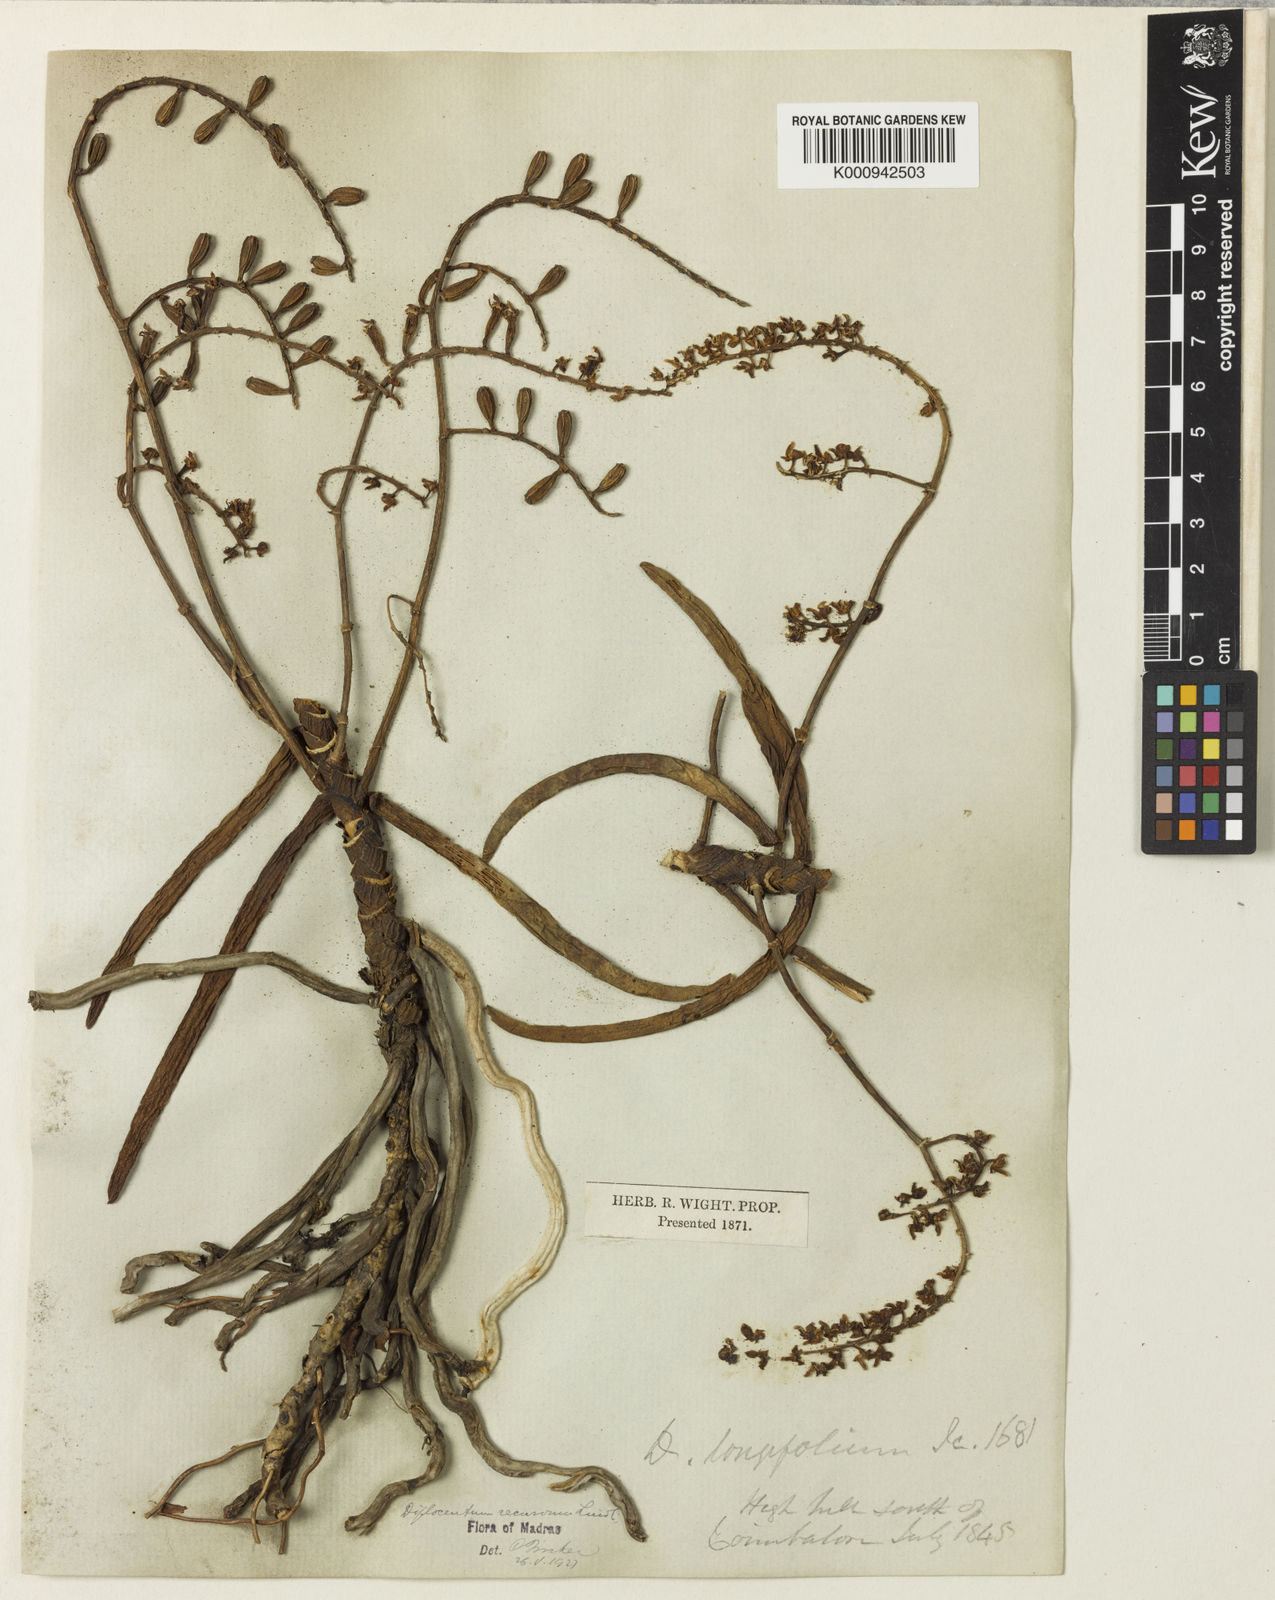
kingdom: Plantae
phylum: Tracheophyta
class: Liliopsida
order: Asparagales
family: Orchidaceae
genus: Diplocentrum
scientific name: Diplocentrum recurvum
